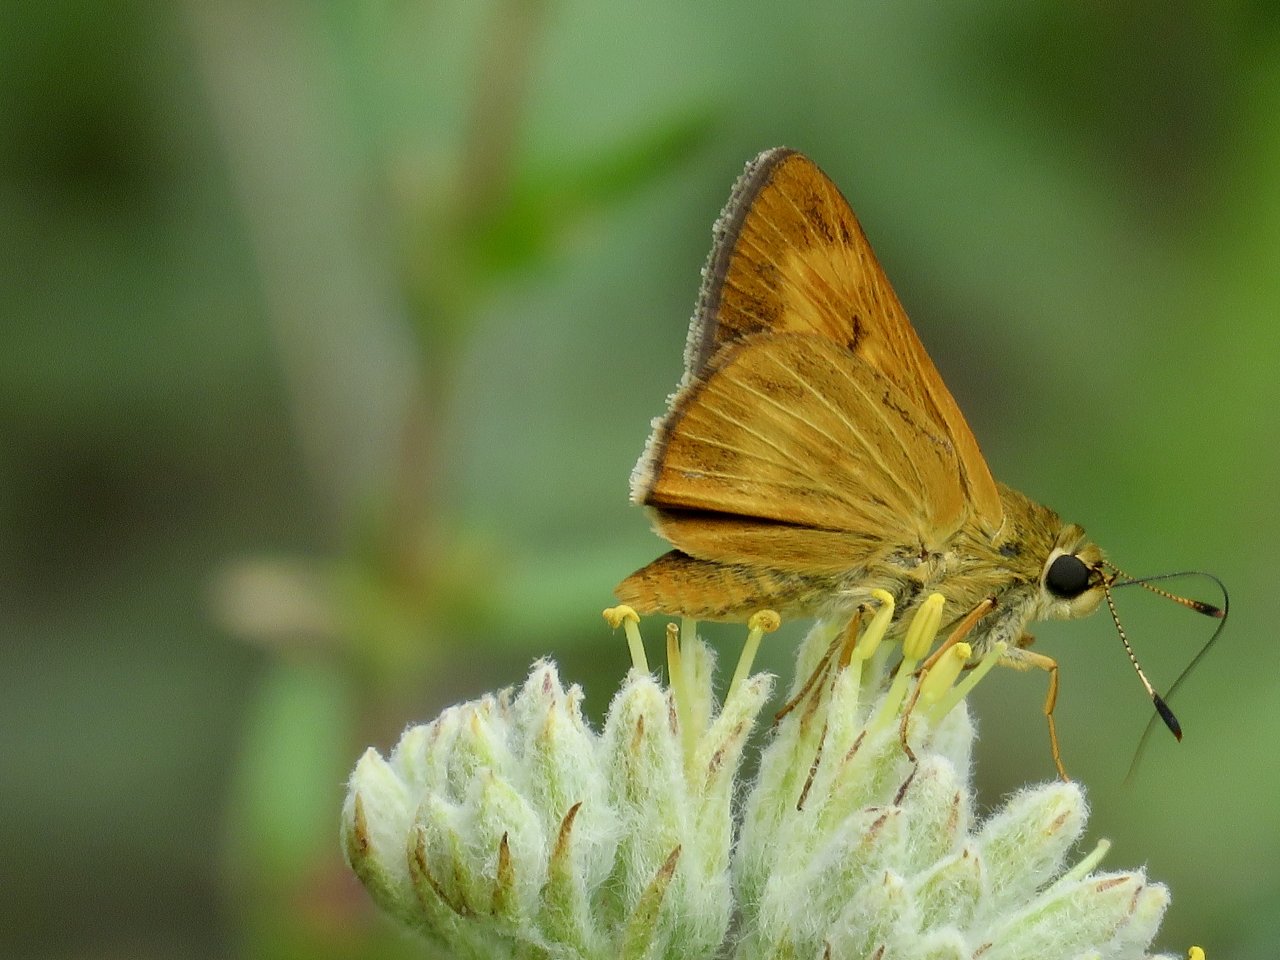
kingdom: Animalia
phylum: Arthropoda
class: Insecta
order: Lepidoptera
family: Hesperiidae
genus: Problema
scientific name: Problema byssus
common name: Byssus Skipper
